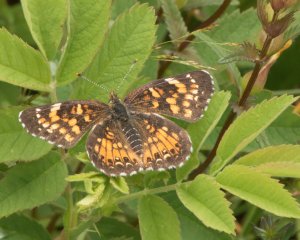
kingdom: Animalia
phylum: Arthropoda
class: Insecta
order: Lepidoptera
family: Nymphalidae
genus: Chlosyne
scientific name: Chlosyne harrisii
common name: Harris's Checkerspot
